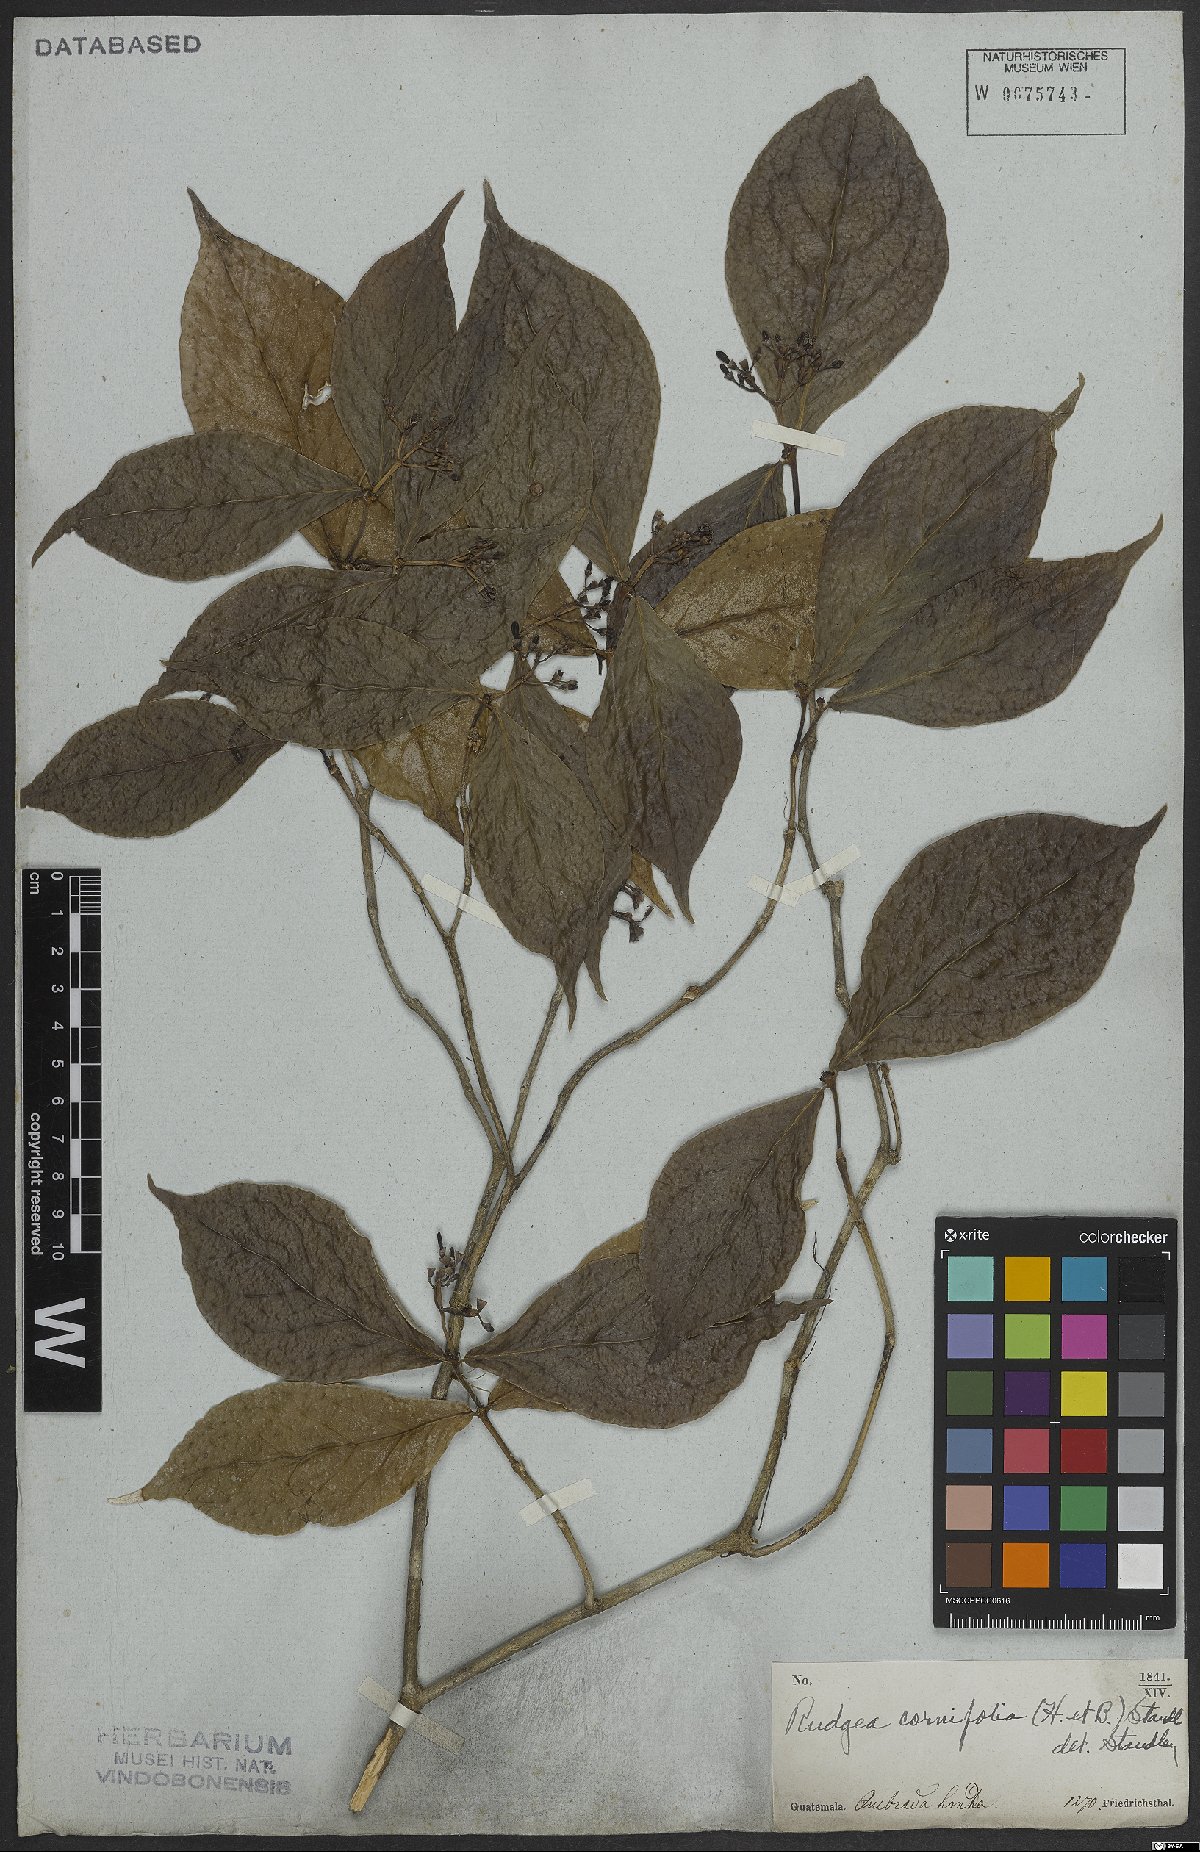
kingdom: Plantae
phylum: Tracheophyta
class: Magnoliopsida
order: Gentianales
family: Rubiaceae
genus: Rudgea
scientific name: Rudgea cornifolia
